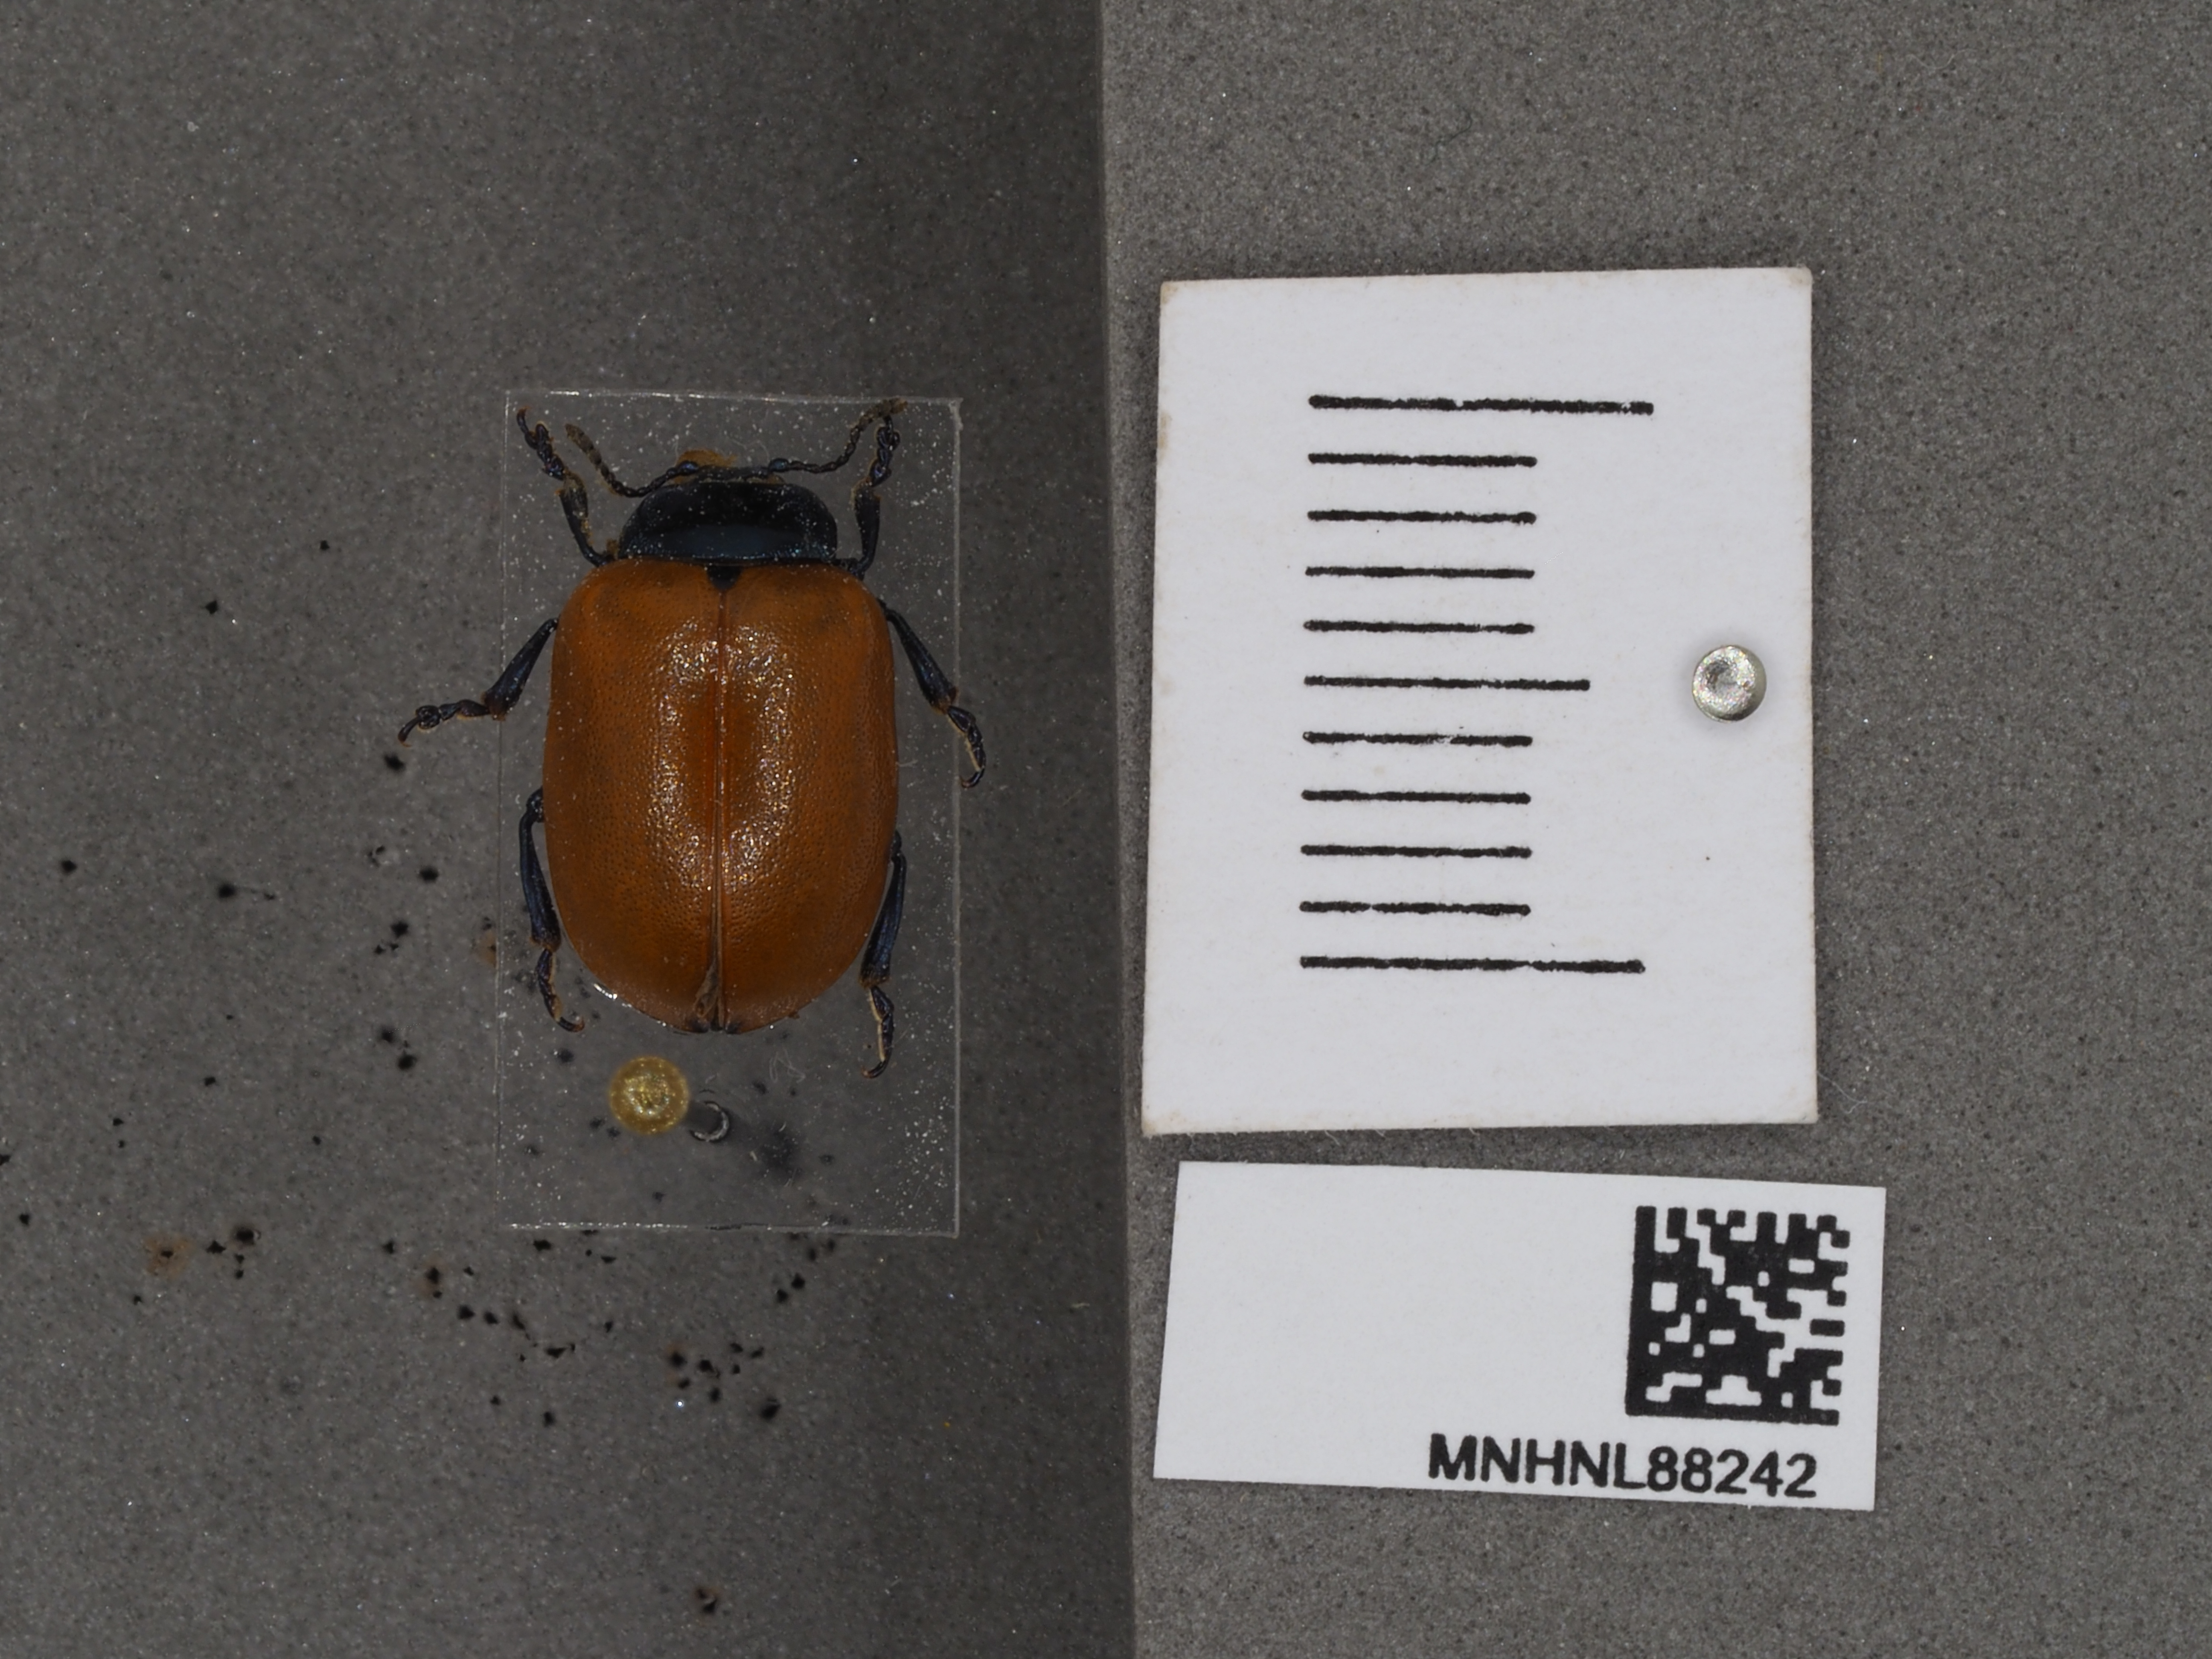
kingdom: Animalia
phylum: Arthropoda
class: Insecta
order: Coleoptera
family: Chrysomelidae
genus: Chrysomela
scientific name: Chrysomela populi
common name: Red poplar leaf beetle
